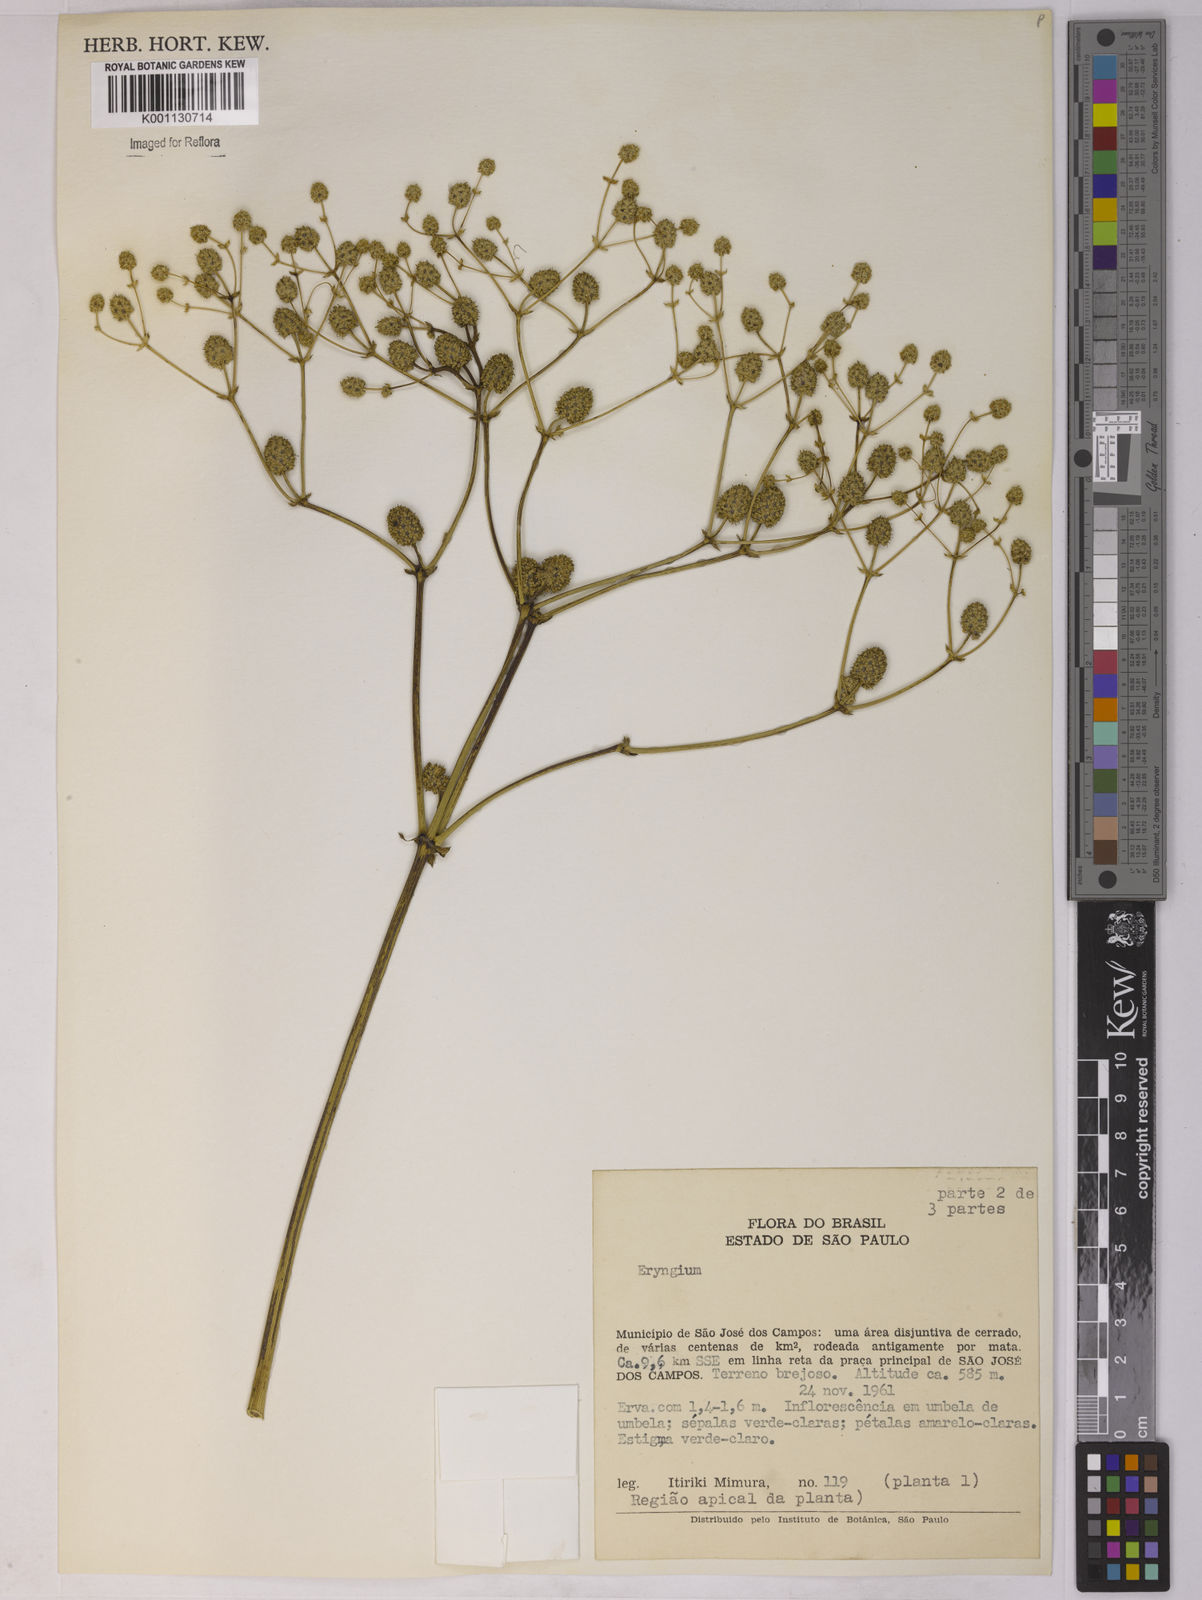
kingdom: Plantae
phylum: Tracheophyta
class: Magnoliopsida
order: Apiales
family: Apiaceae
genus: Eryngium
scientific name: Eryngium
